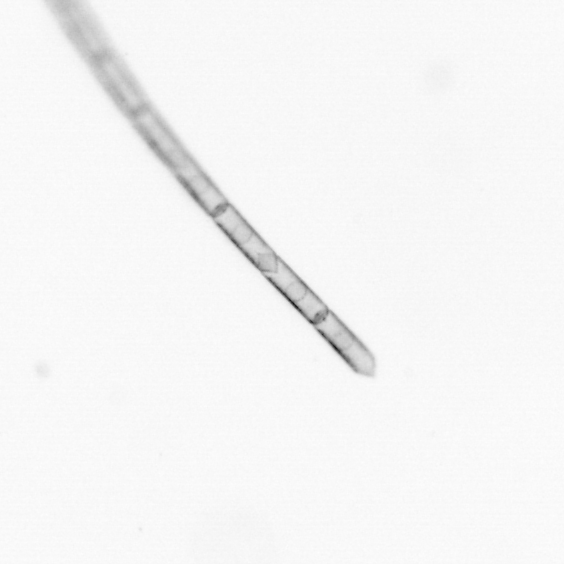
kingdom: Chromista
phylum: Ochrophyta
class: Bacillariophyceae
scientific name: Bacillariophyceae
